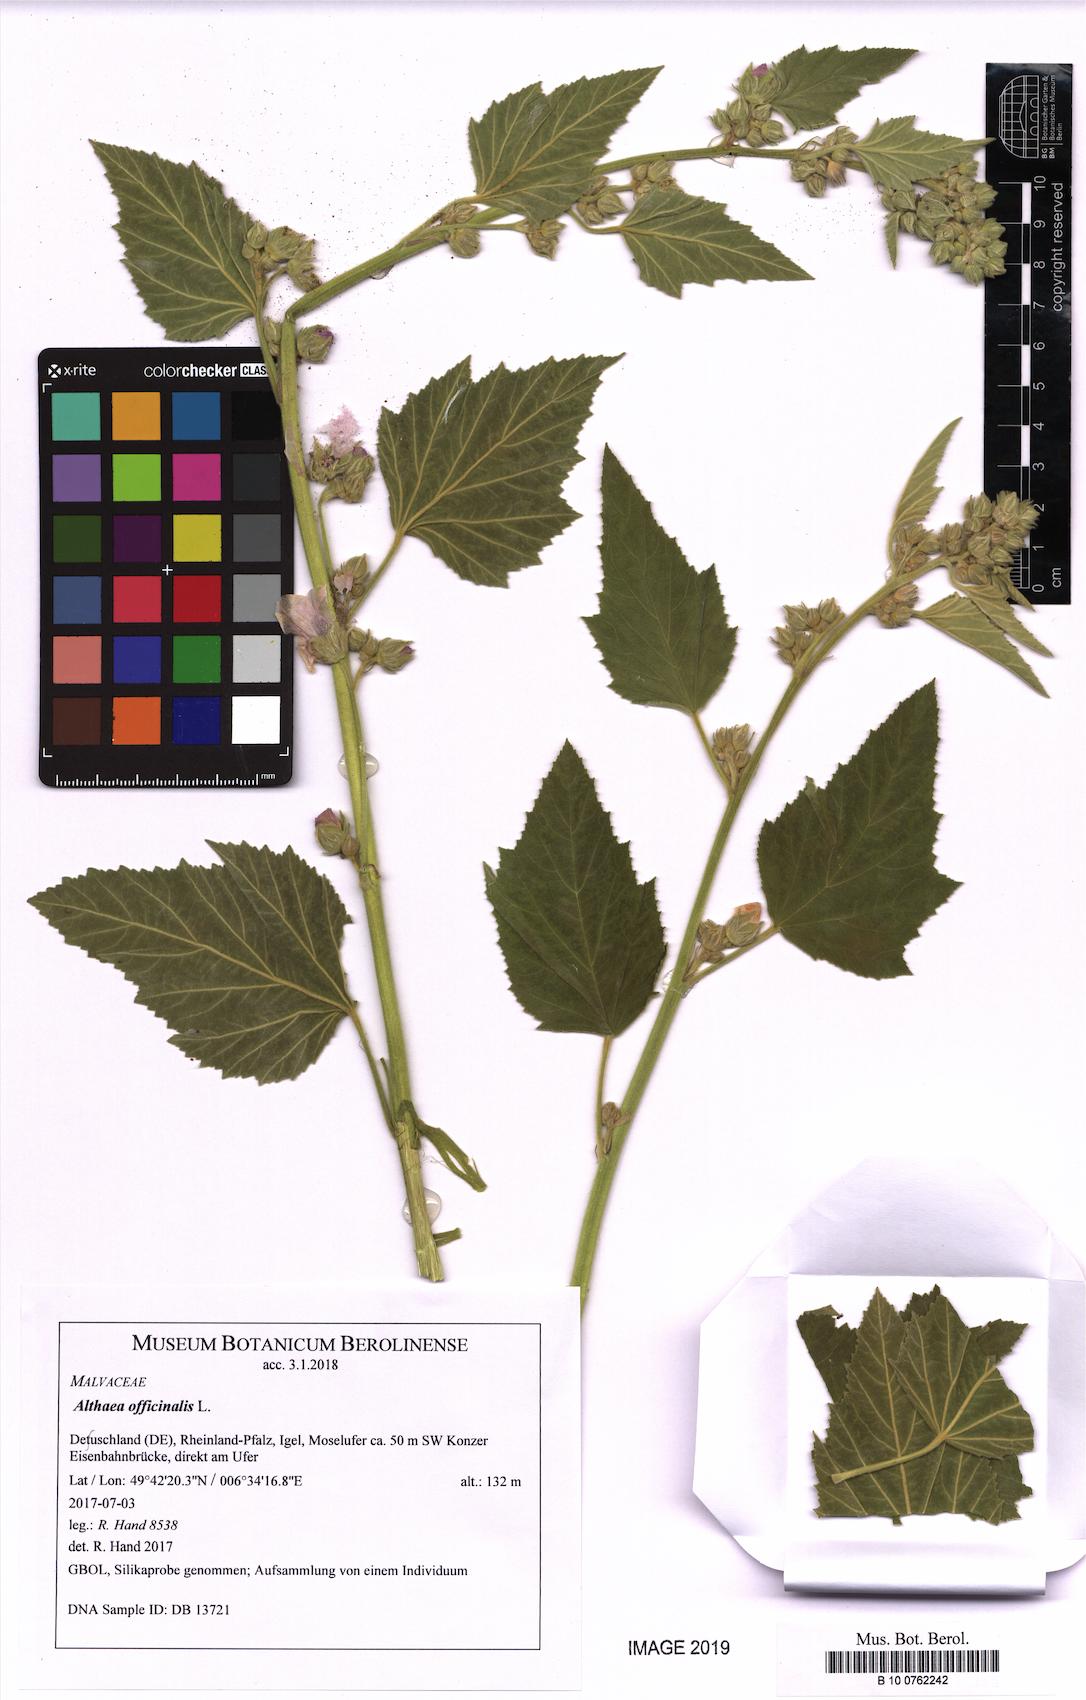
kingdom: Plantae
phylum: Tracheophyta
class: Magnoliopsida
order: Malvales
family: Malvaceae
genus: Althaea
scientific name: Althaea officinalis
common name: Marsh-mallow
